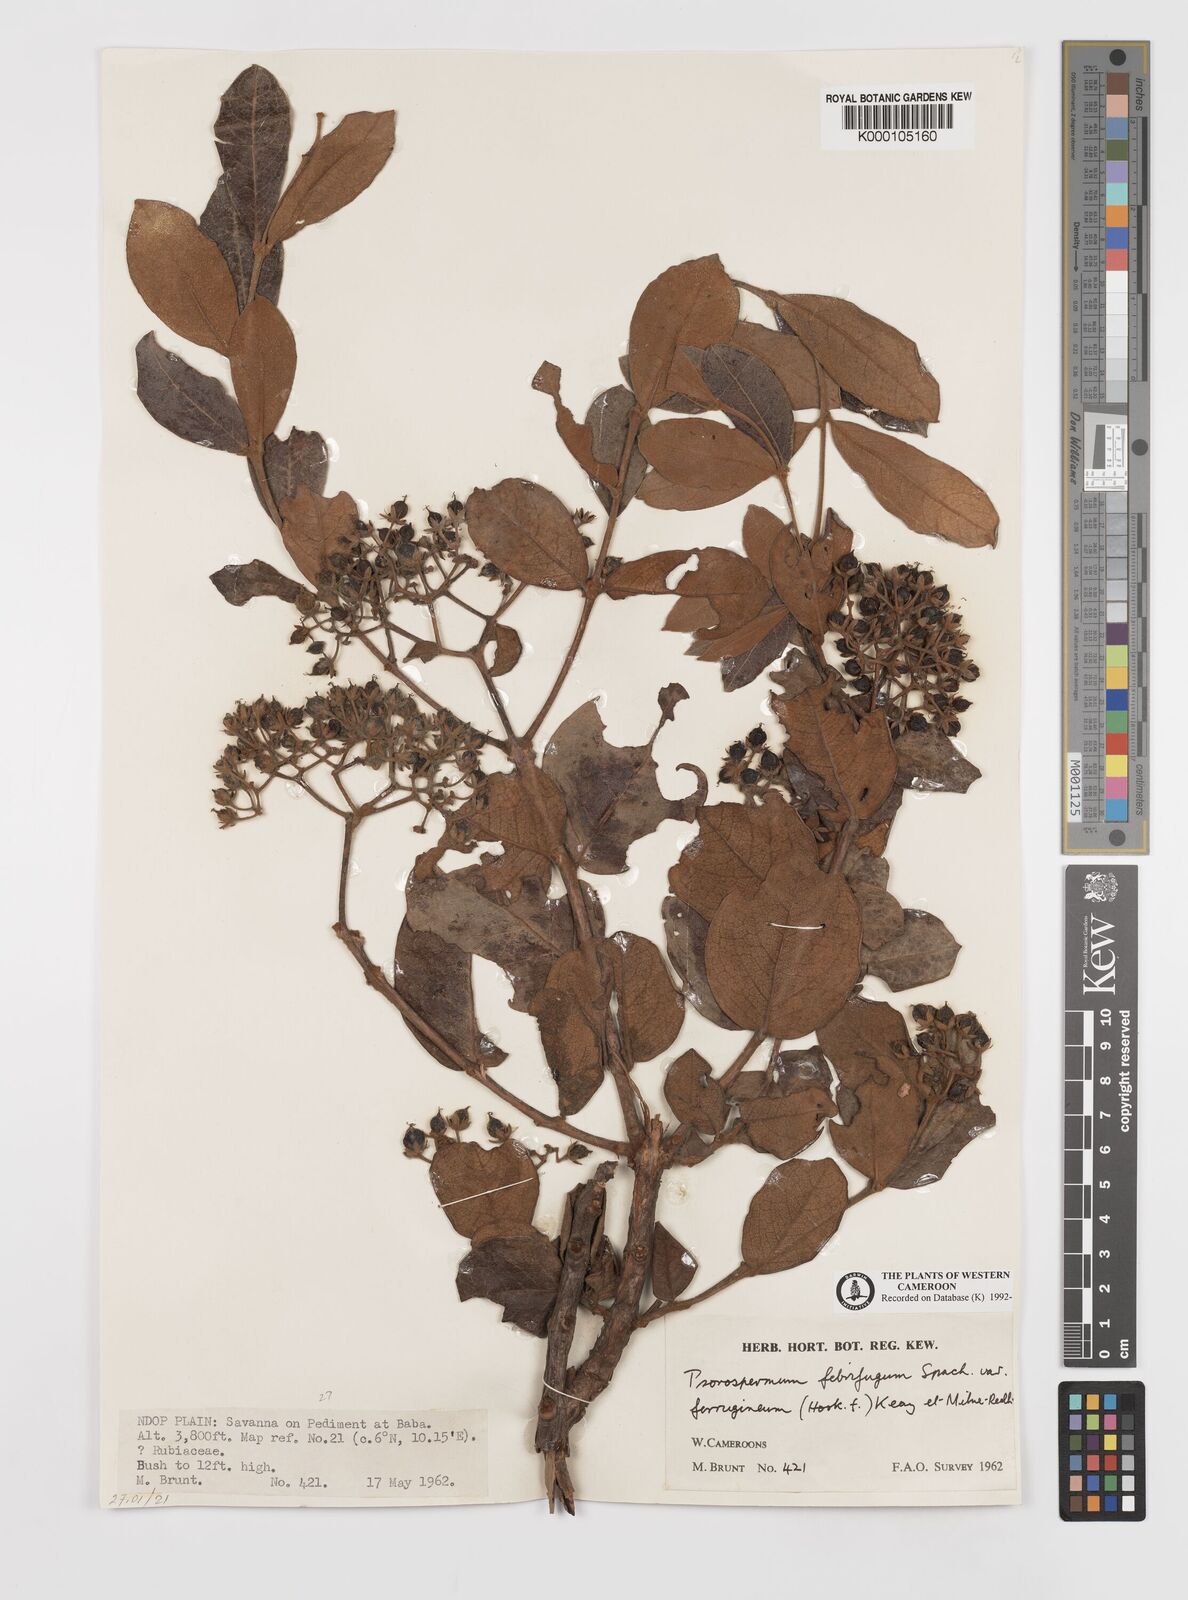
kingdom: Plantae
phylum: Tracheophyta
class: Magnoliopsida
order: Malpighiales
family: Hypericaceae
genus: Psorospermum
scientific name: Psorospermum
